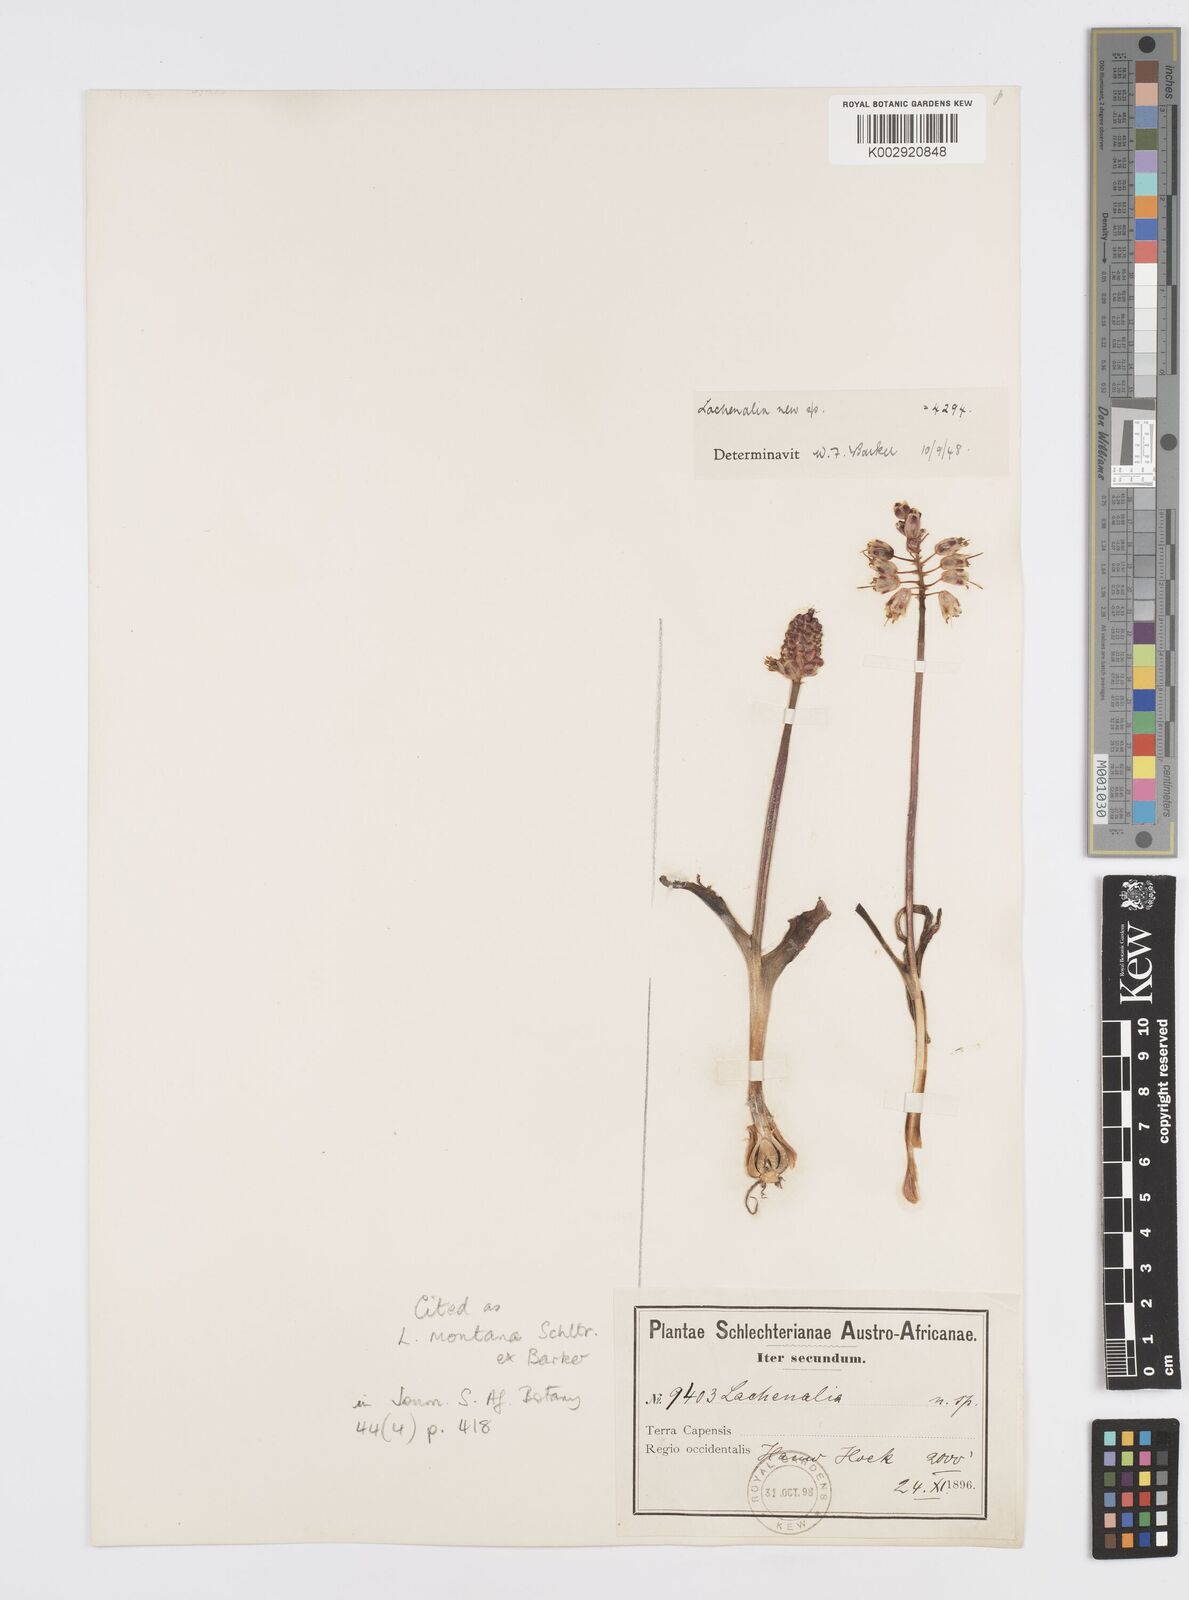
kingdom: Plantae
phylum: Tracheophyta
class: Liliopsida
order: Asparagales
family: Asparagaceae
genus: Lachenalia
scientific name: Lachenalia montana
